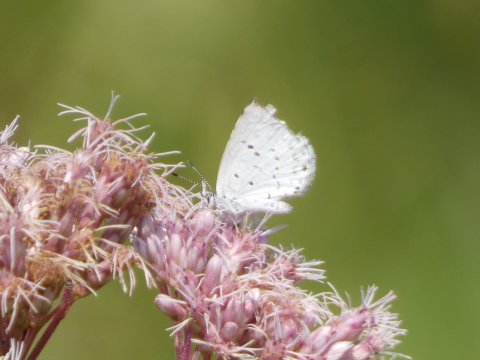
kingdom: Animalia
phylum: Arthropoda
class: Insecta
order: Lepidoptera
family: Lycaenidae
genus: Cyaniris
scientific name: Cyaniris neglecta
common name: Summer Azure
